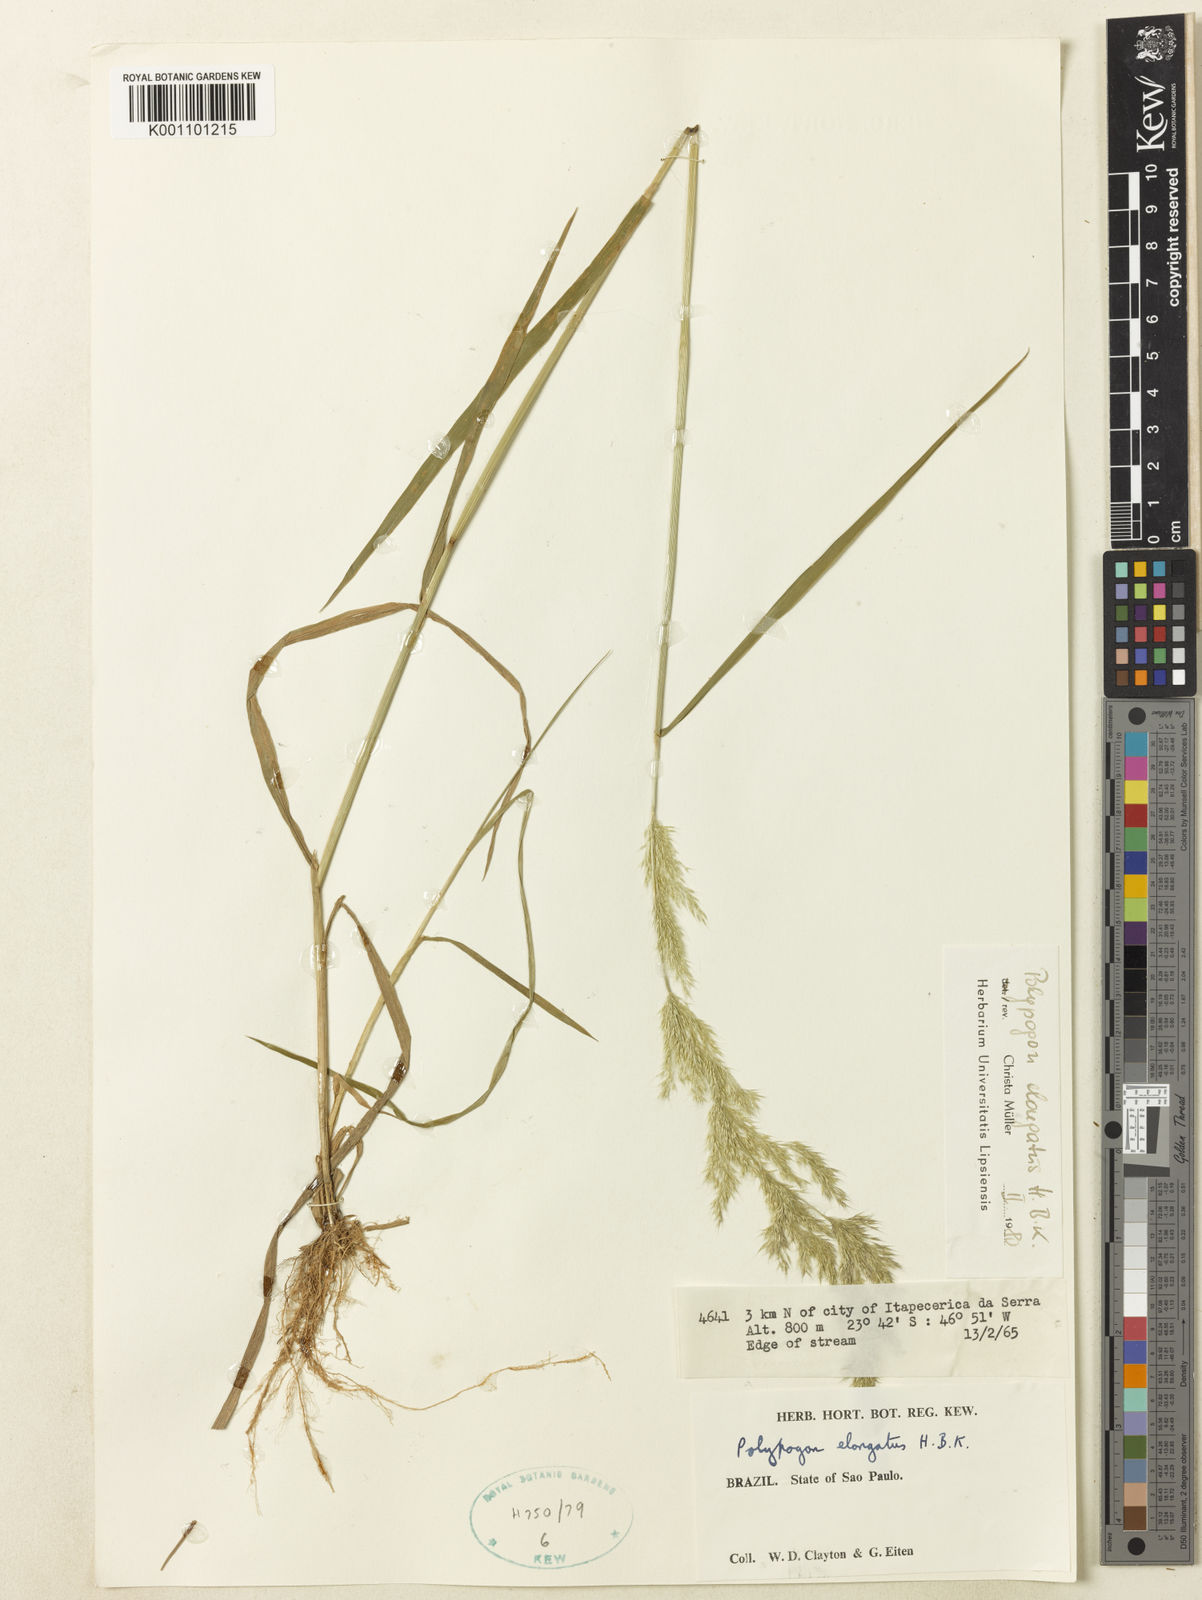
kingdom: Plantae
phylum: Tracheophyta
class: Liliopsida
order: Poales
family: Poaceae
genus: Polypogon
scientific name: Polypogon elongatus
